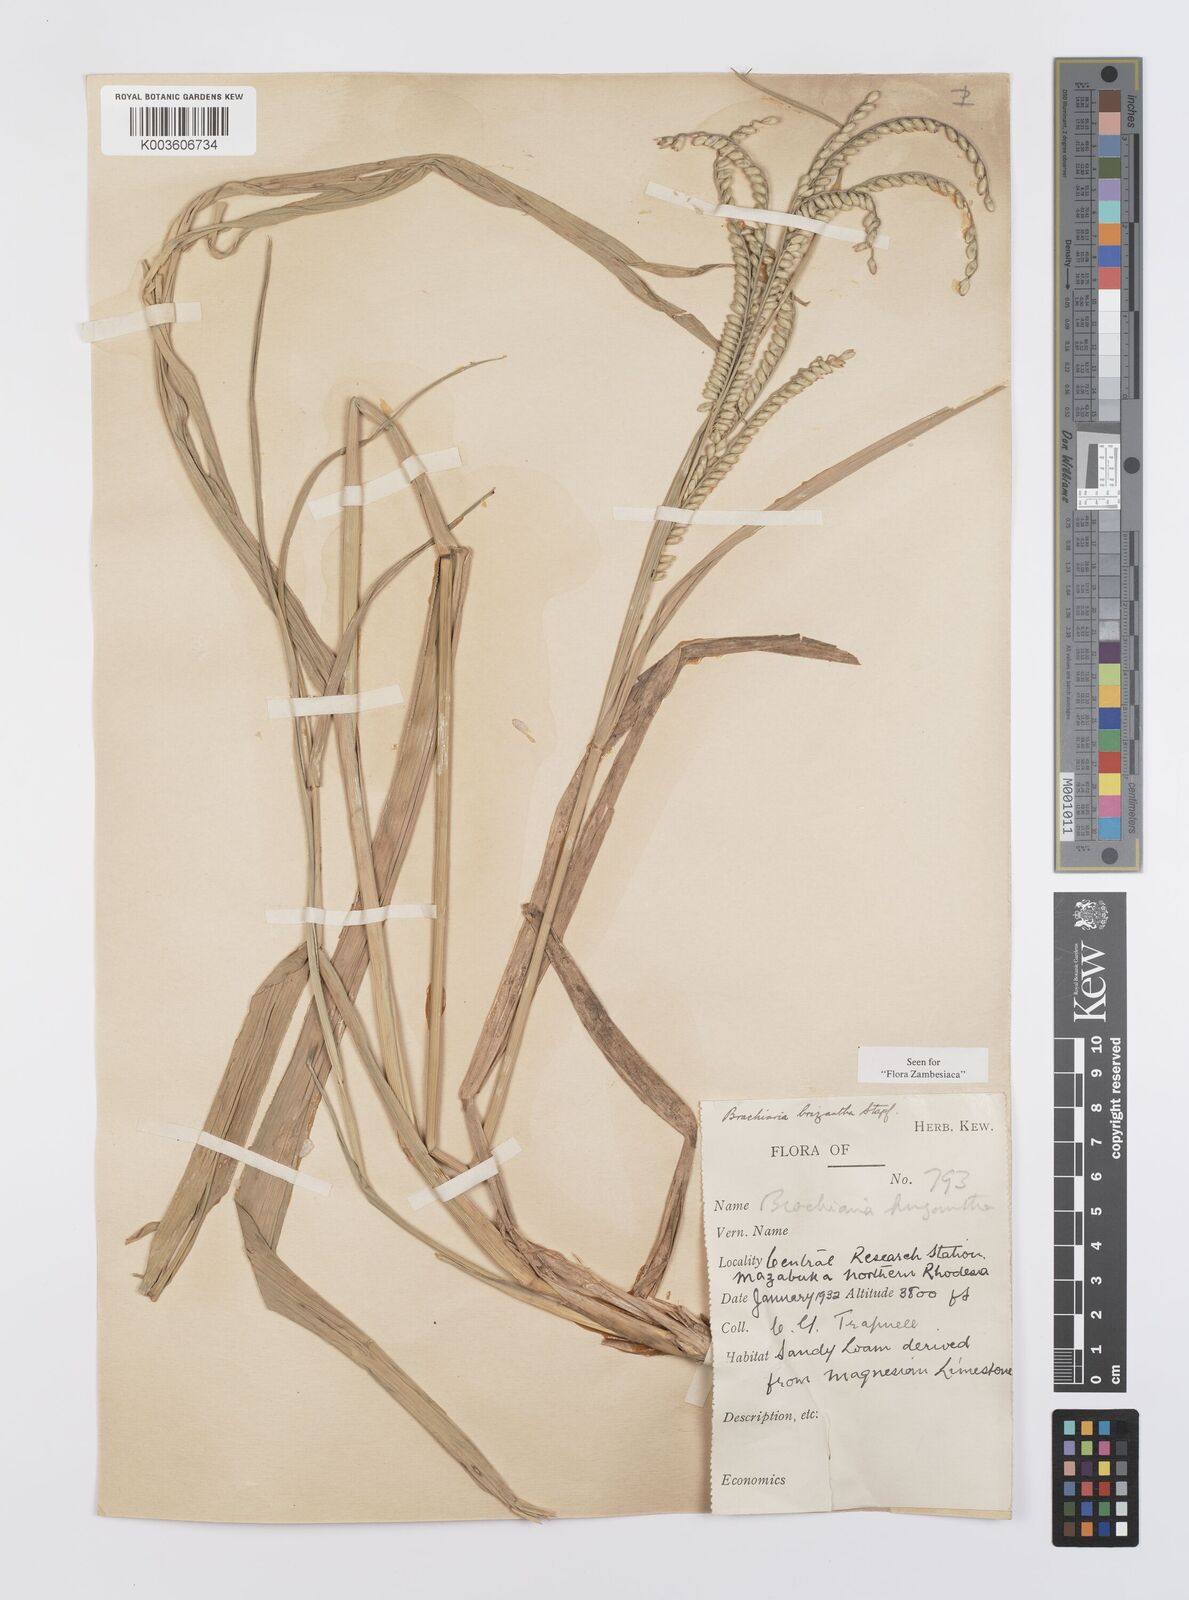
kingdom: Plantae
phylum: Tracheophyta
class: Liliopsida
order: Poales
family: Poaceae
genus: Urochloa
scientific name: Urochloa brizantha
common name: Palisade signalgrass
